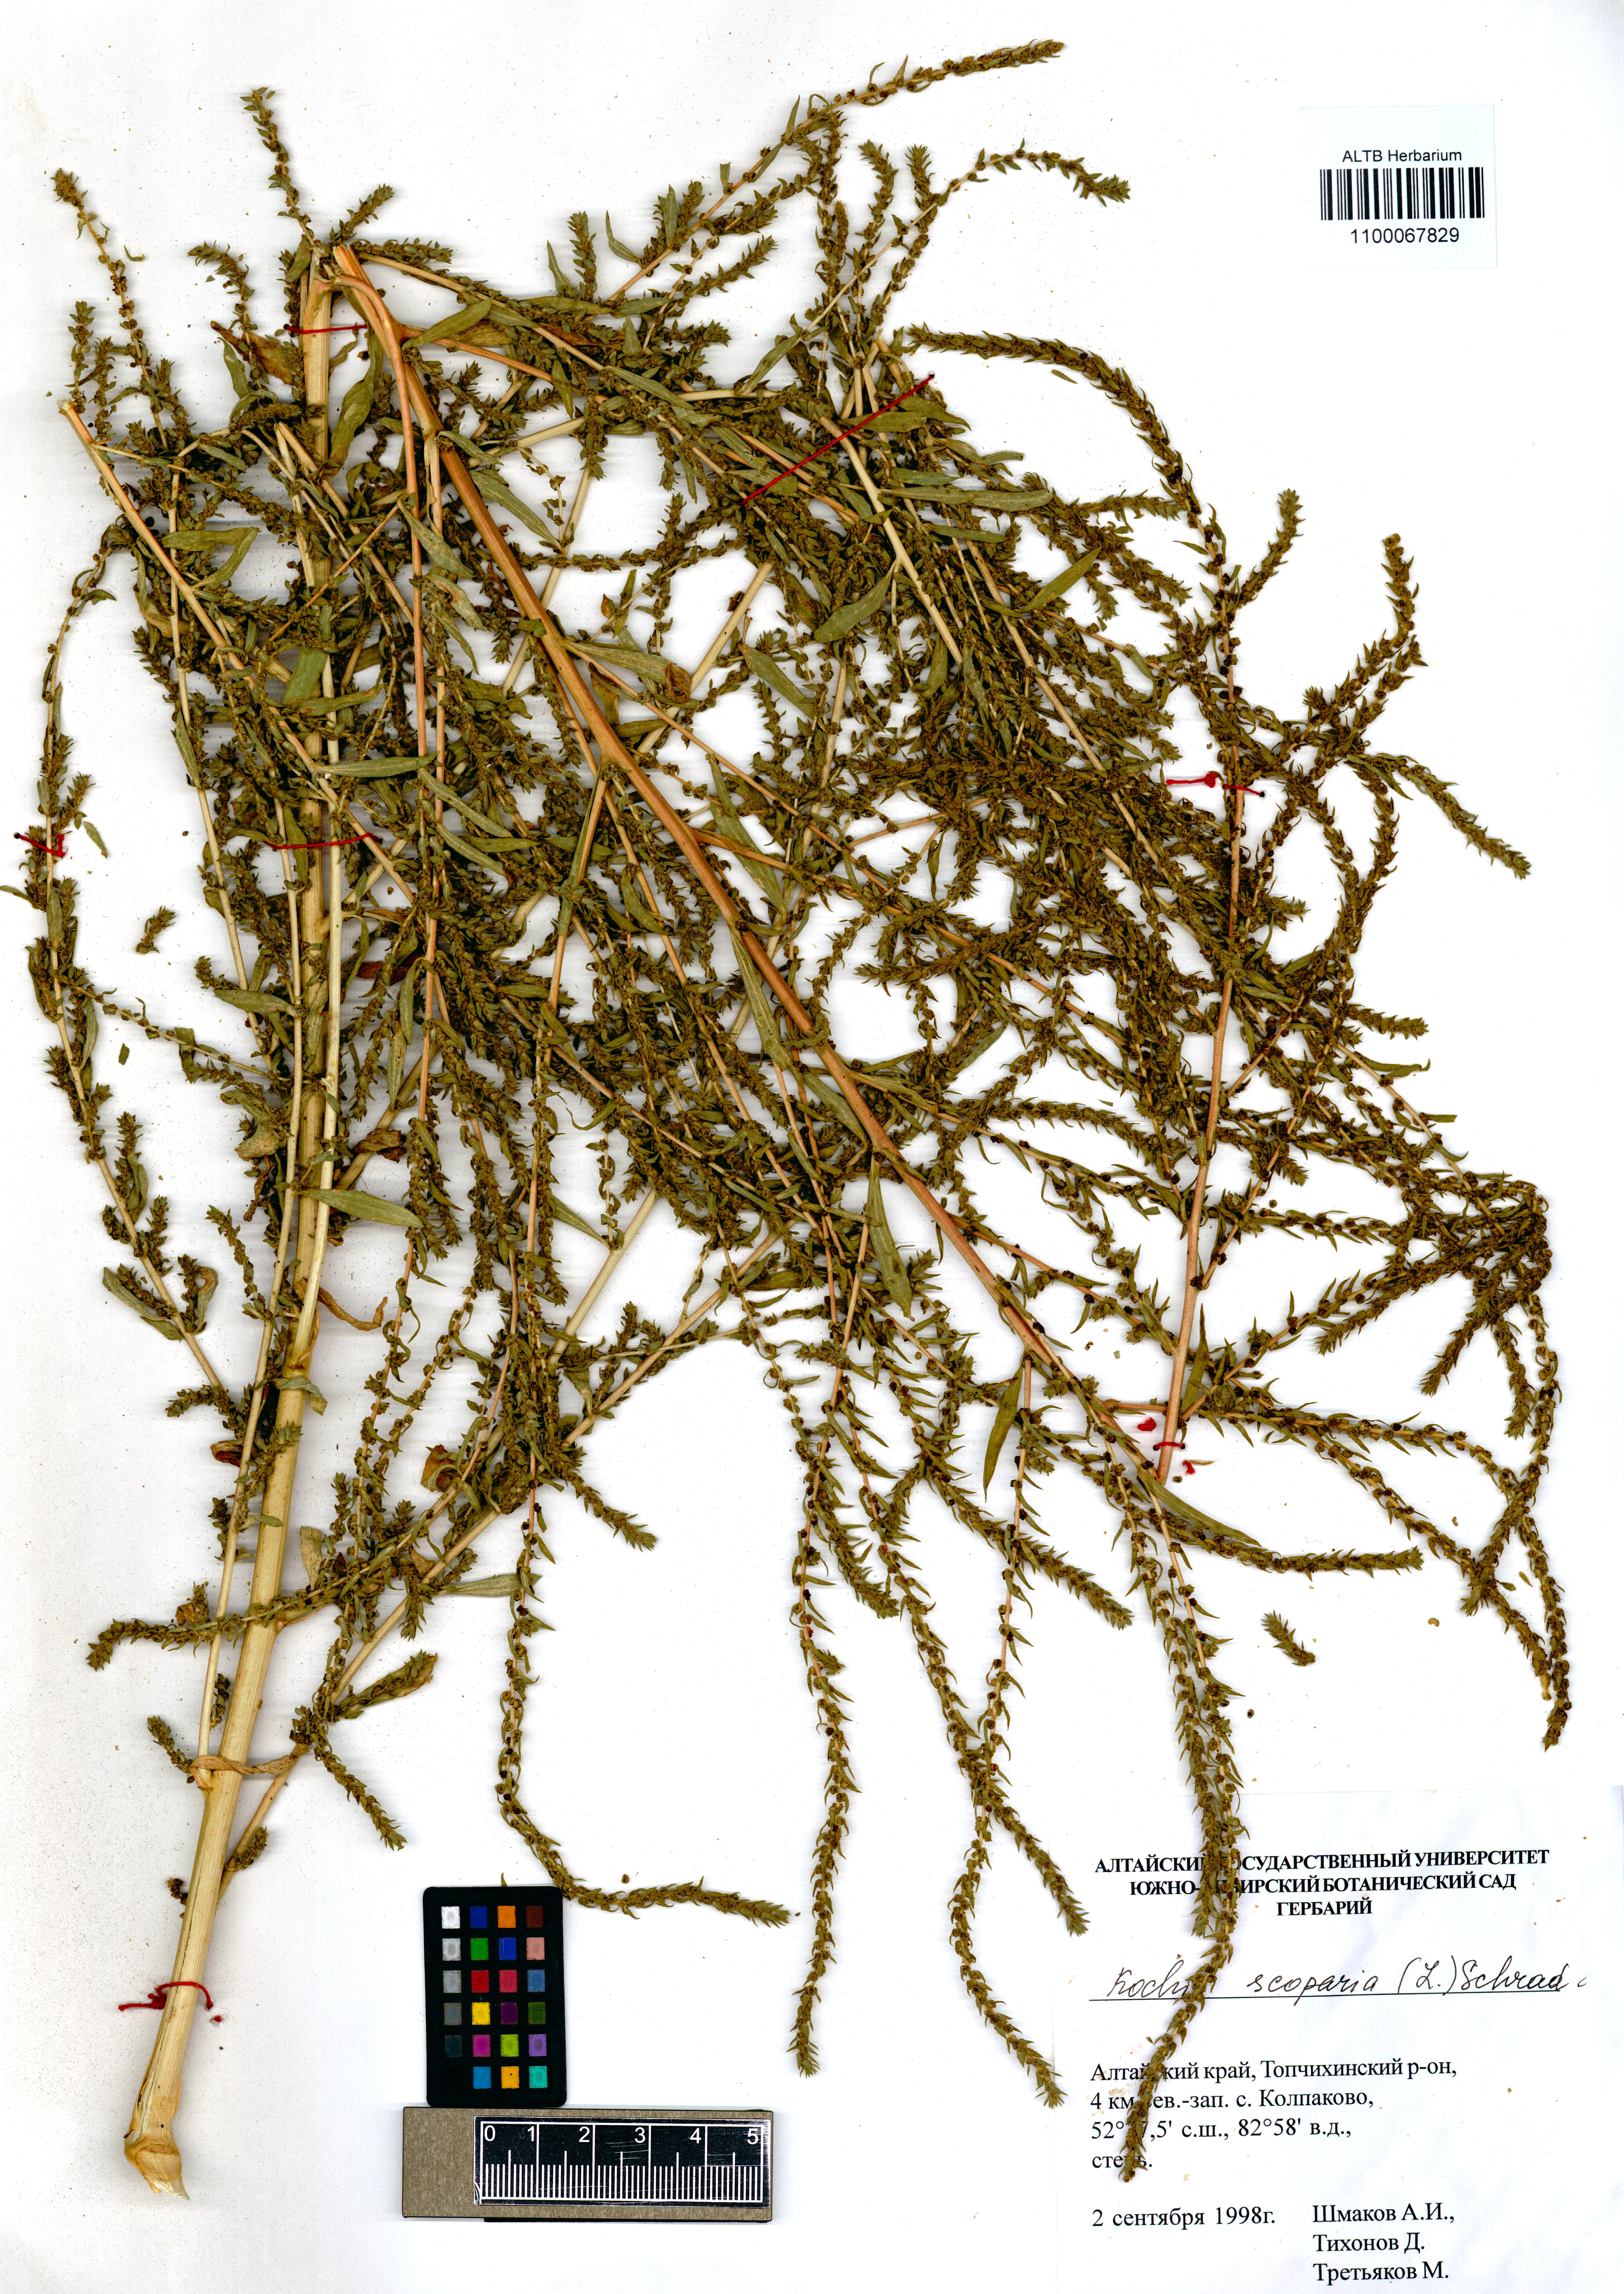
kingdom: Plantae
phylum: Tracheophyta
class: Magnoliopsida
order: Caryophyllales
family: Amaranthaceae
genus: Bassia
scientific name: Bassia scoparia
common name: Belvedere
